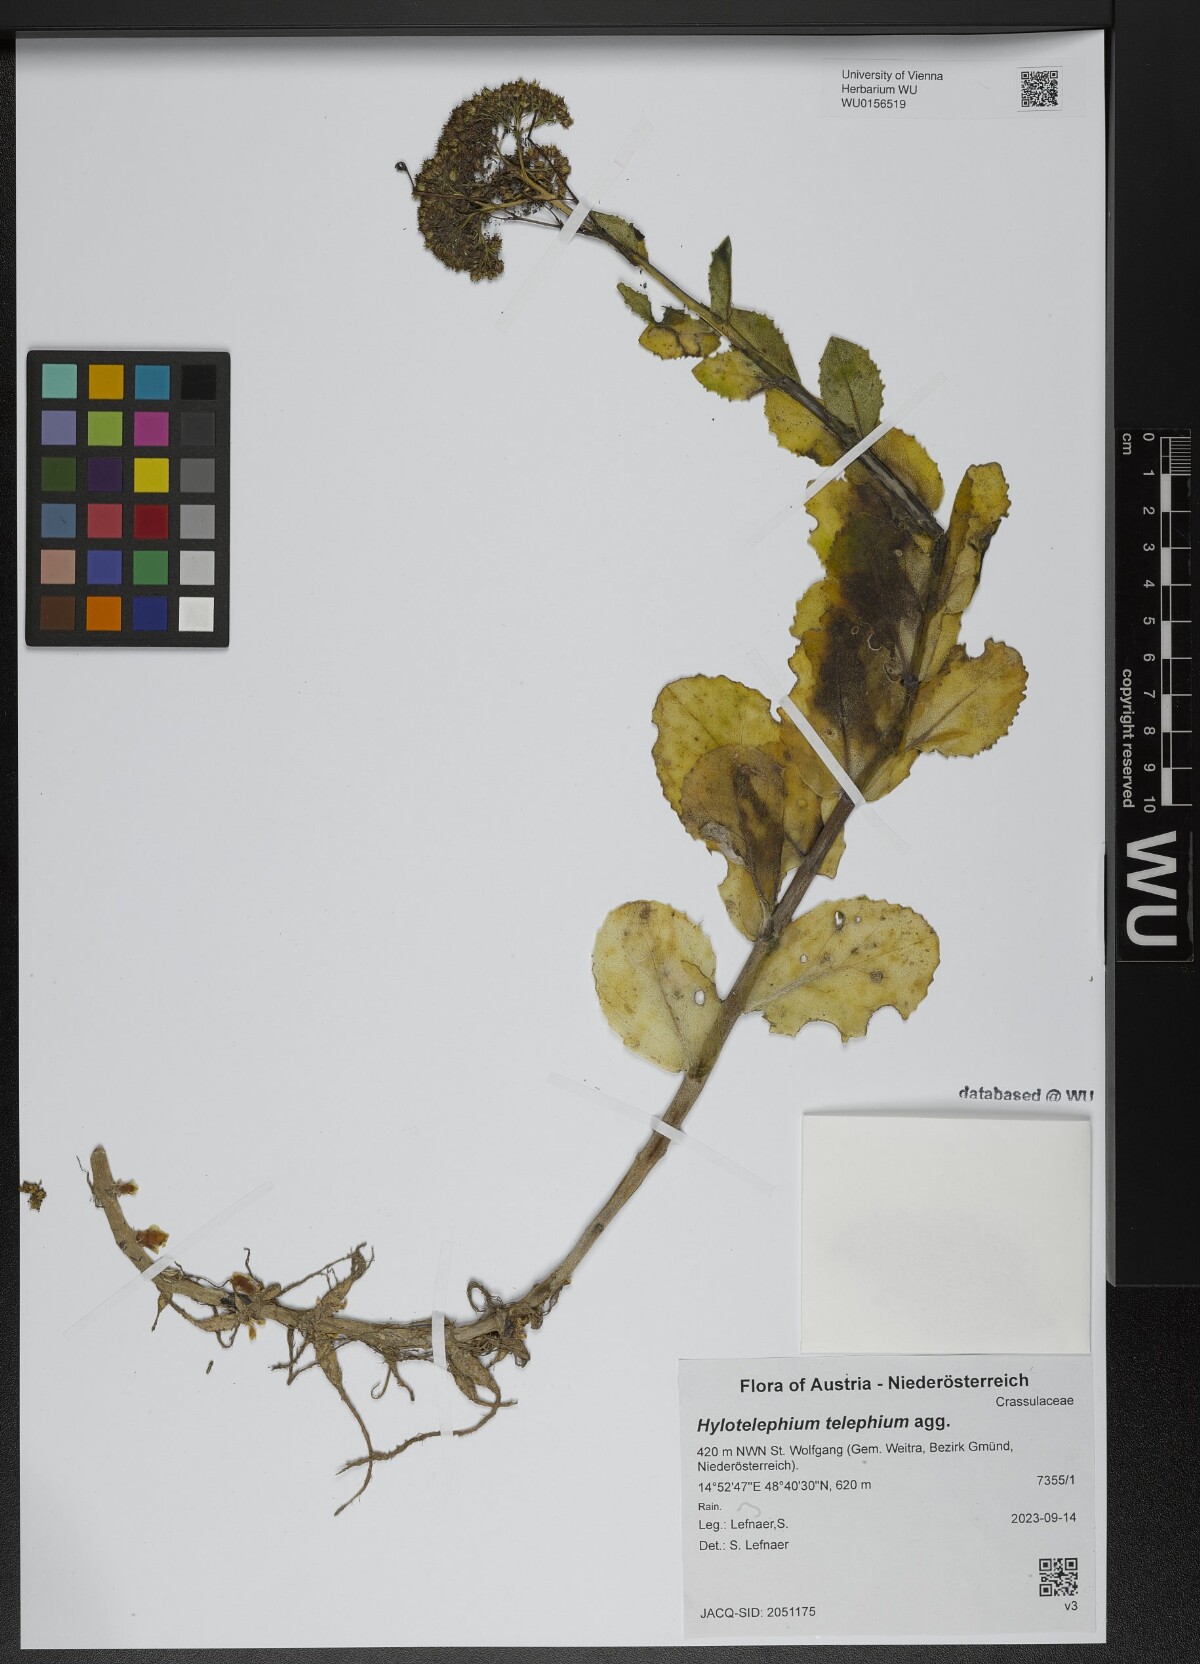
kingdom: Plantae
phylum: Tracheophyta
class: Magnoliopsida
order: Saxifragales
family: Crassulaceae
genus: Hylotelephium
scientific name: Hylotelephium telephium
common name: Live-forever
